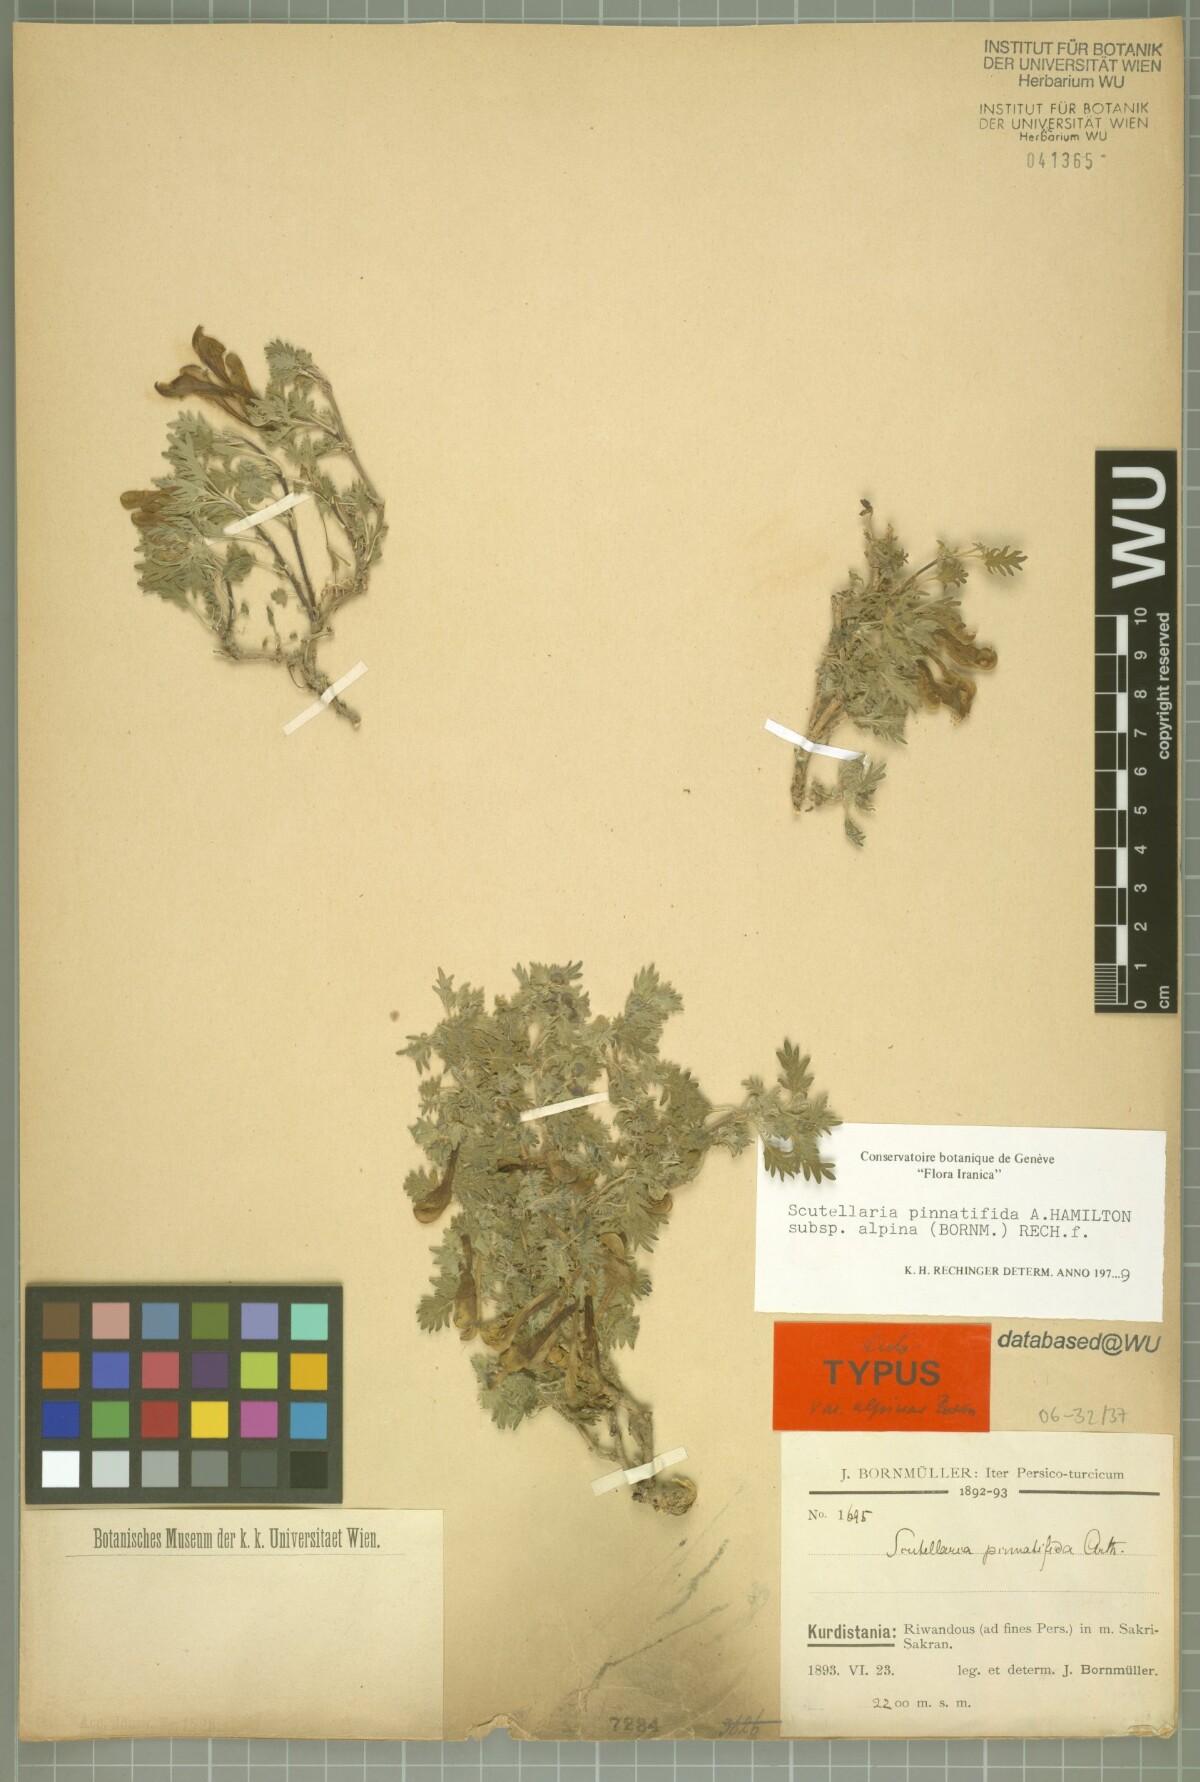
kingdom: Plantae
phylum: Tracheophyta
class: Magnoliopsida
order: Lamiales
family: Lamiaceae
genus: Scutellaria
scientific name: Scutellaria pinnatifida
